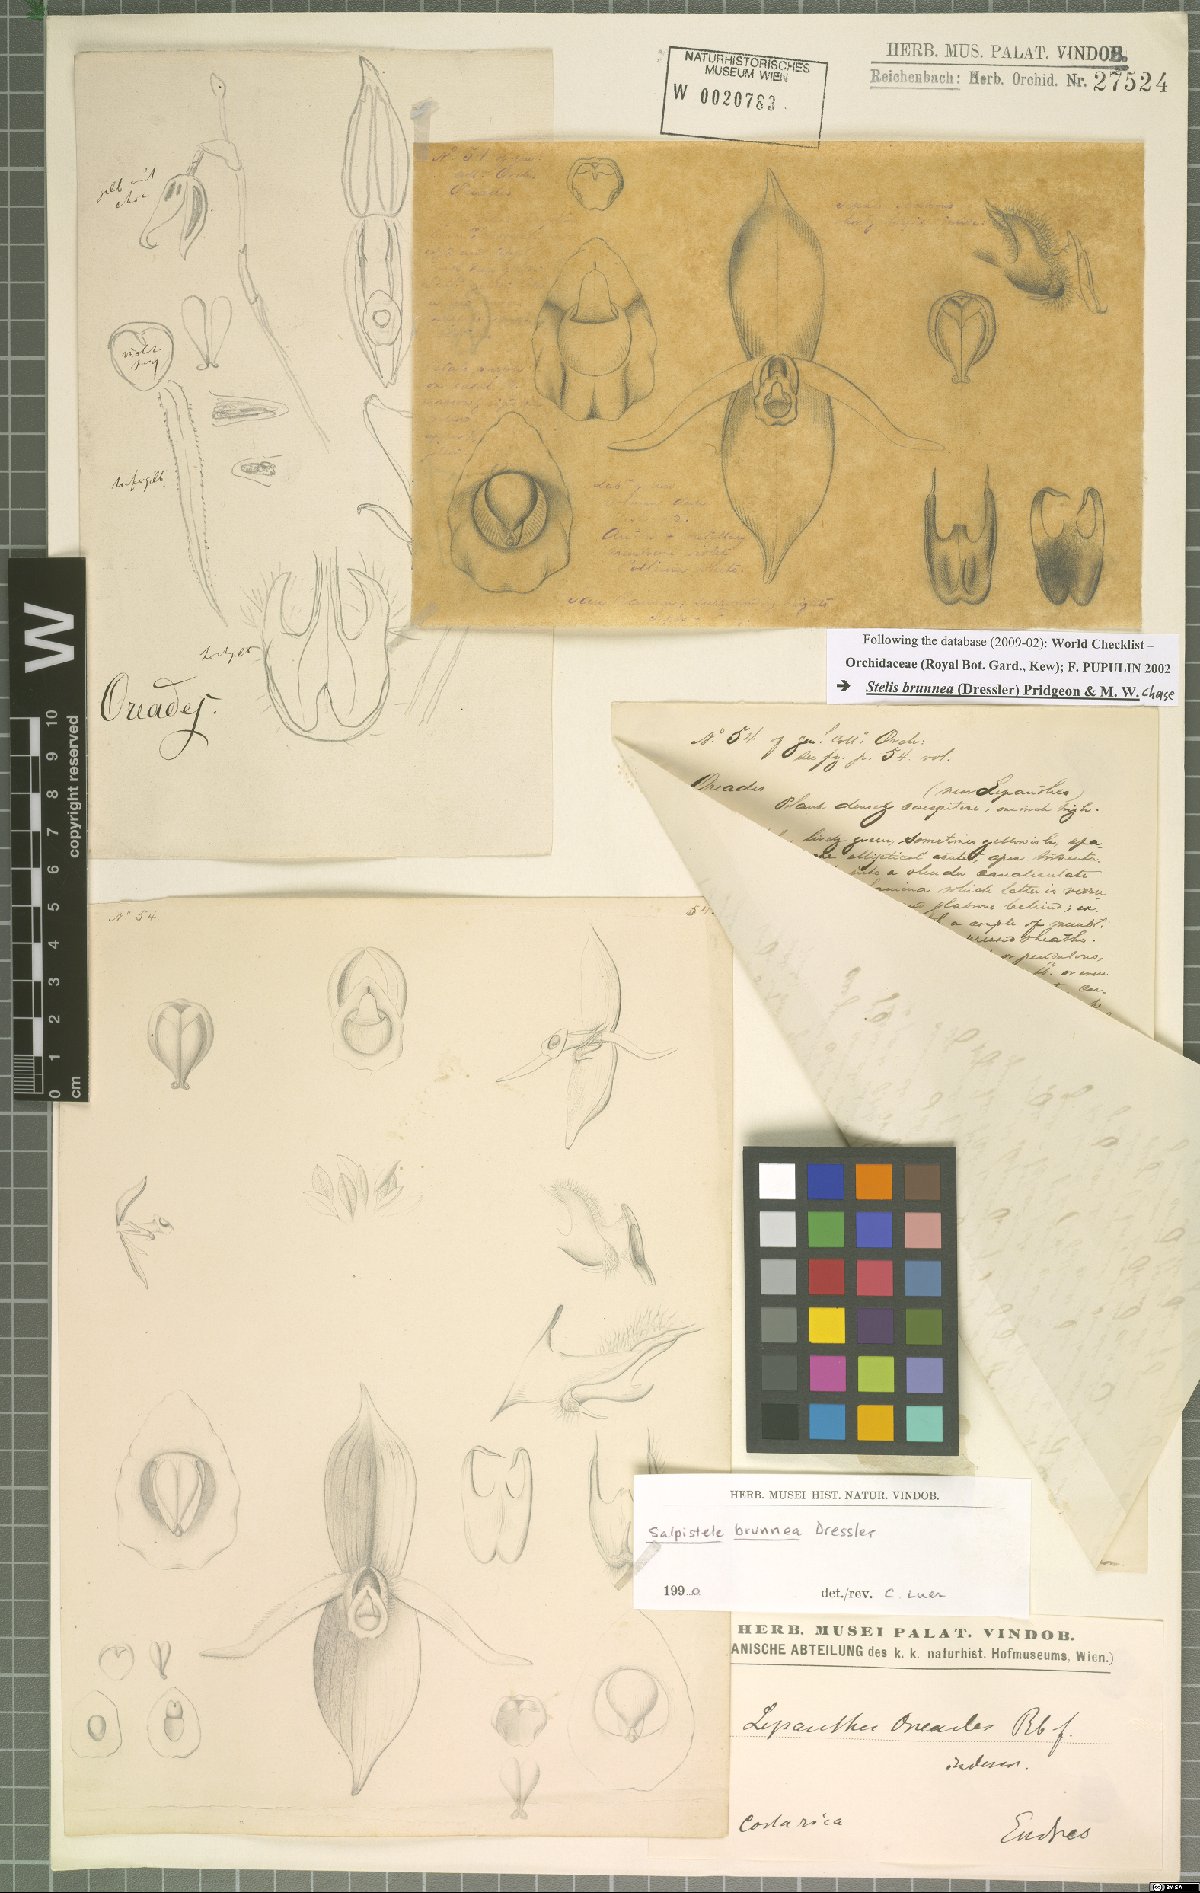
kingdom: Plantae
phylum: Tracheophyta
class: Liliopsida
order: Asparagales
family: Orchidaceae
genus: Stelis
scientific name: Stelis brunnea
